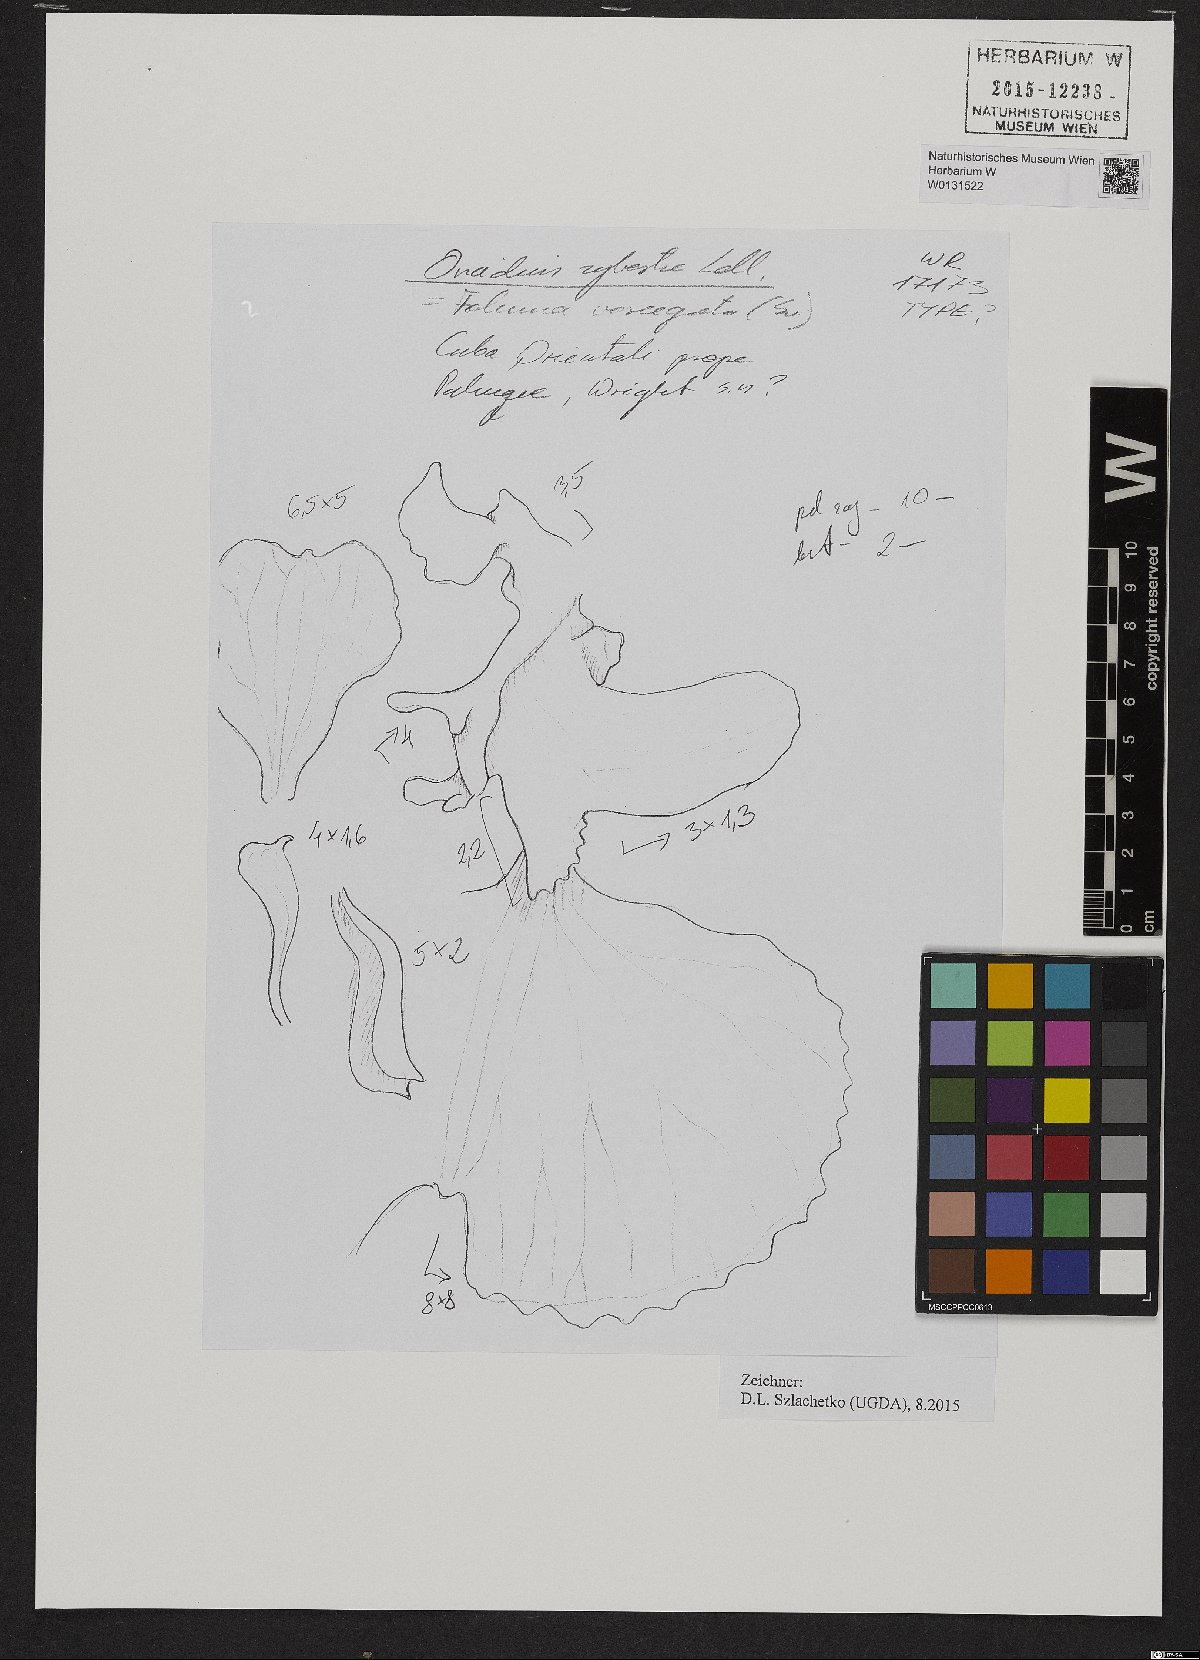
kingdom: Plantae
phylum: Tracheophyta
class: Liliopsida
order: Asparagales
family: Orchidaceae
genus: Tolumnia
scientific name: Tolumnia sylvestris
